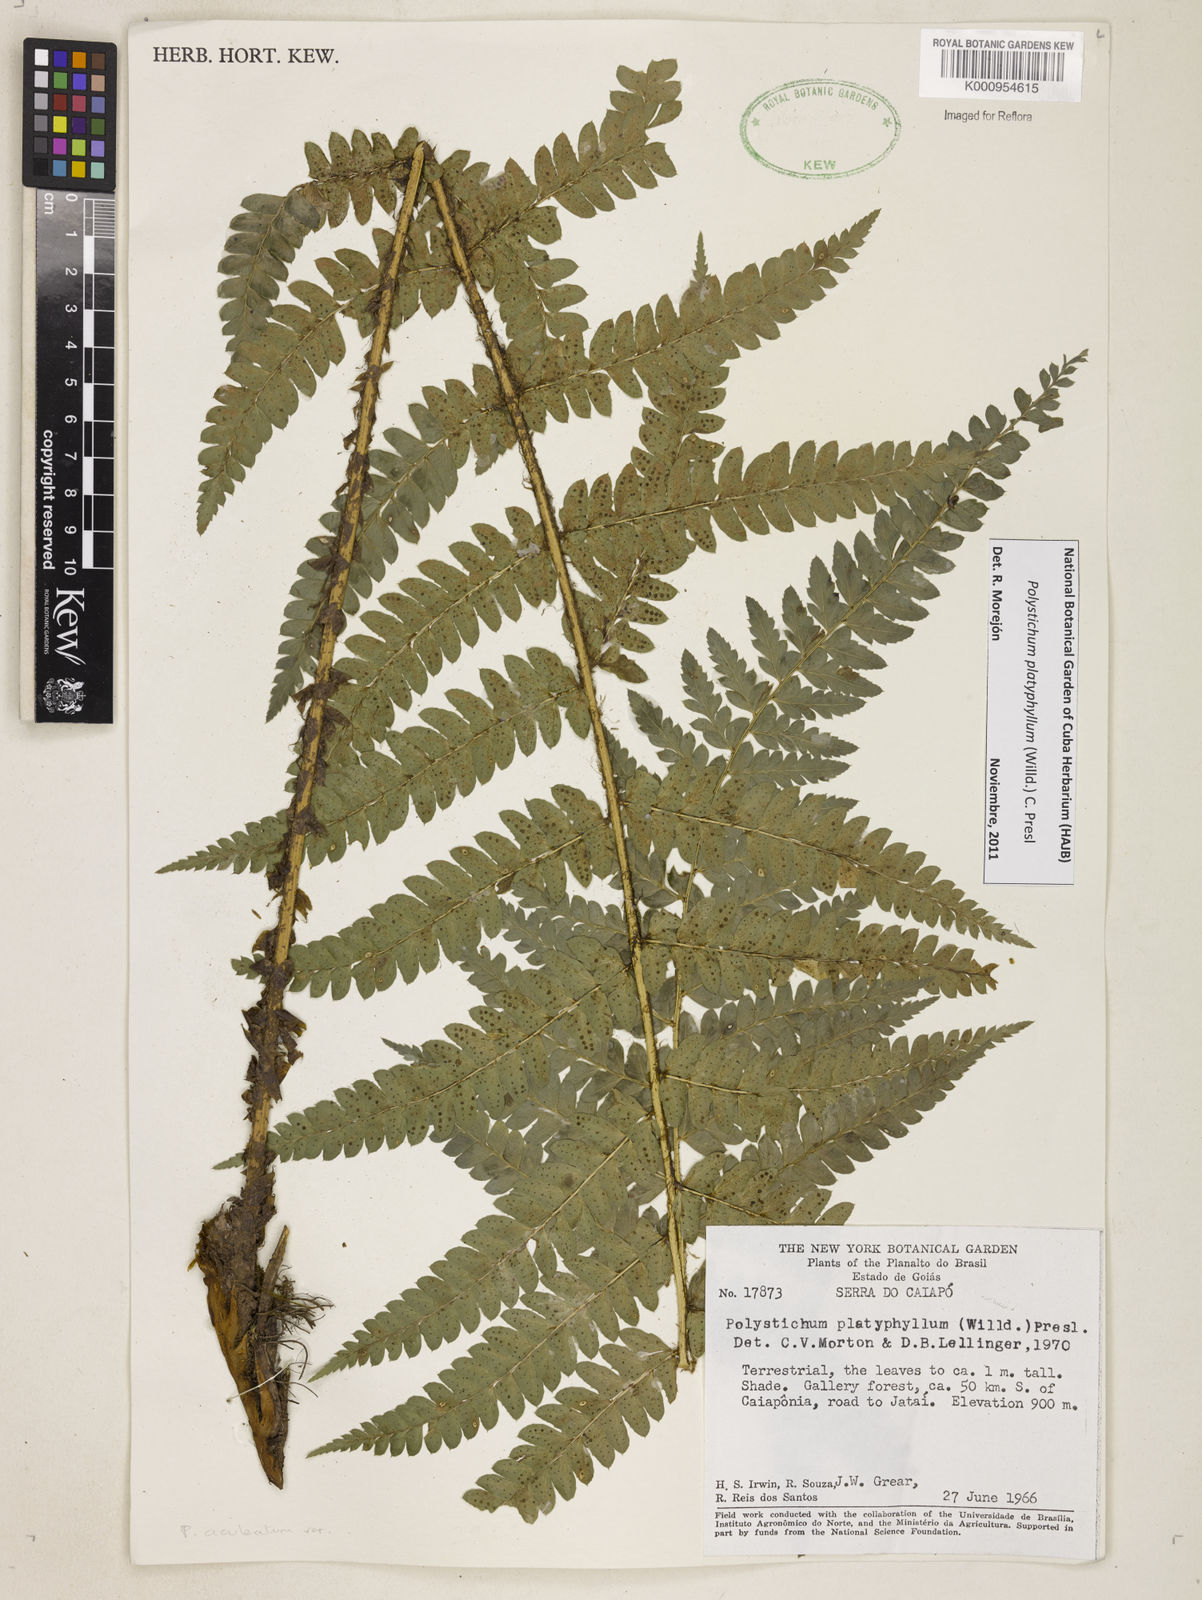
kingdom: Plantae
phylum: Tracheophyta
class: Polypodiopsida
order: Polypodiales
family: Dryopteridaceae
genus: Polystichum
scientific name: Polystichum platyphyllum
